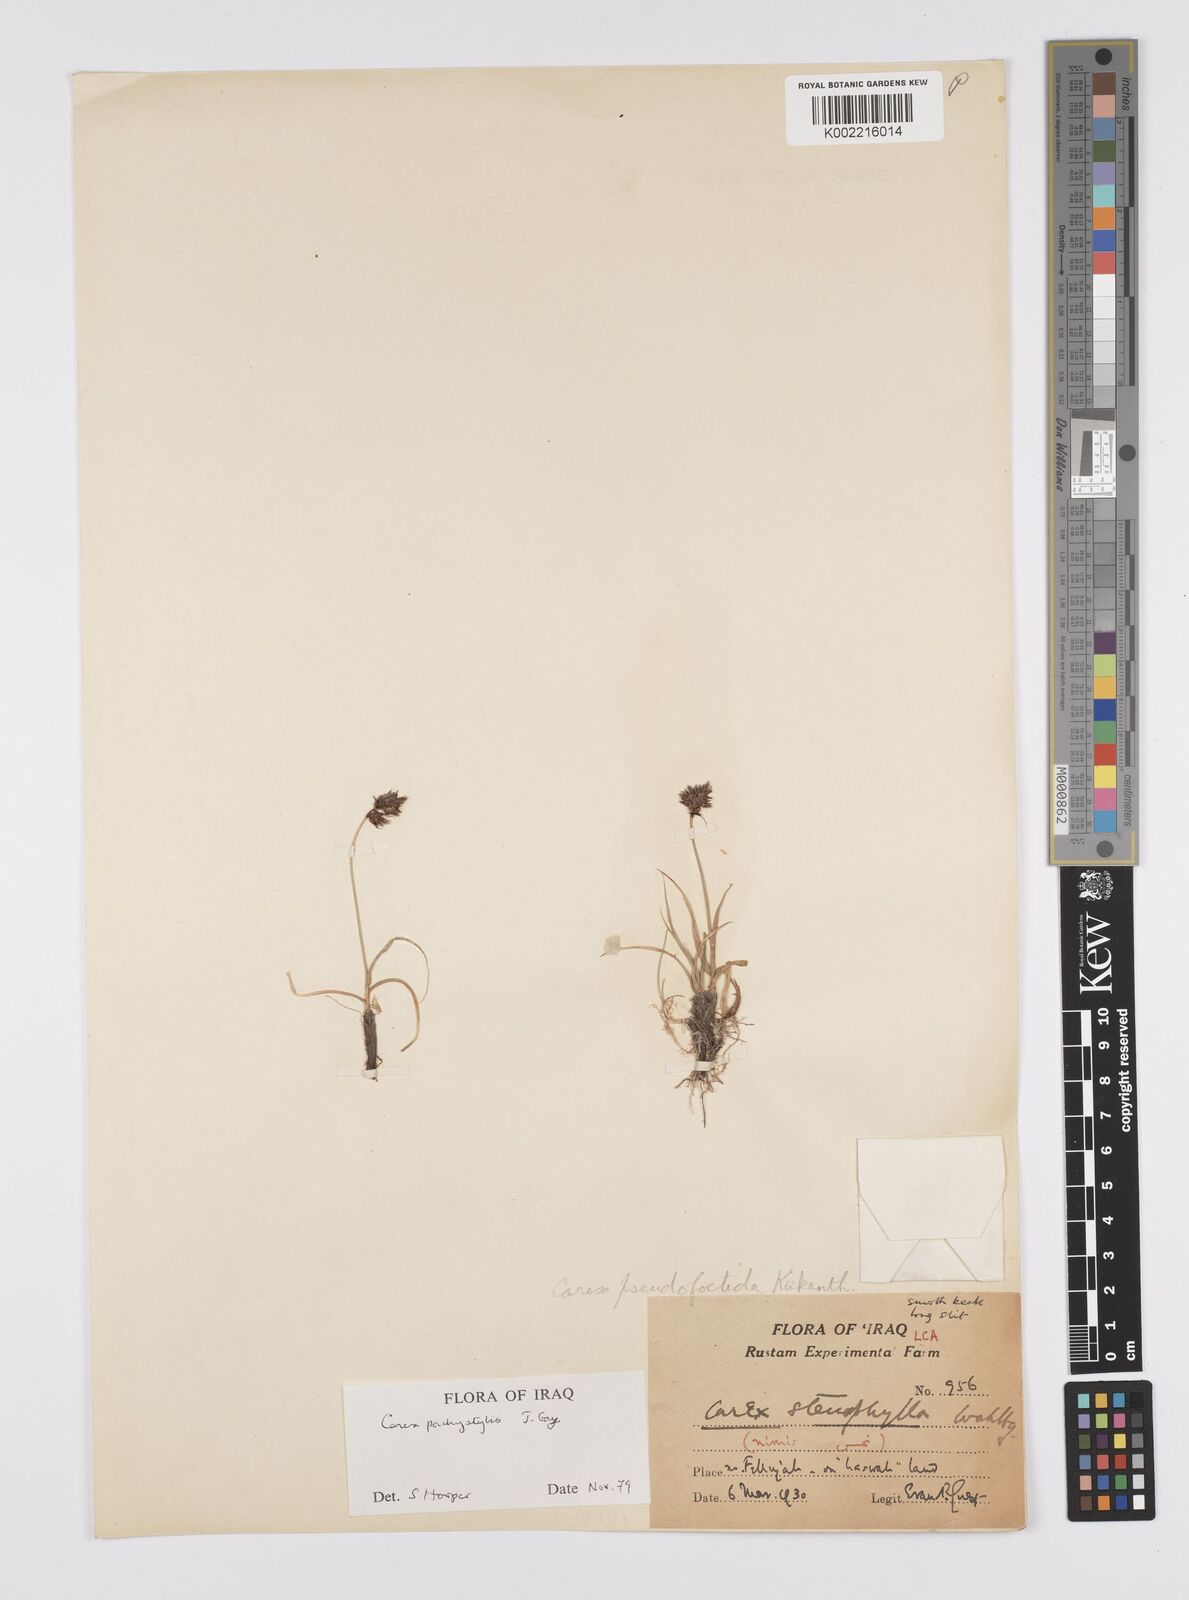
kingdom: Plantae
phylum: Tracheophyta
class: Liliopsida
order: Poales
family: Cyperaceae
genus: Carex
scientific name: Carex pachystylis
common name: Thick-stem sedge
